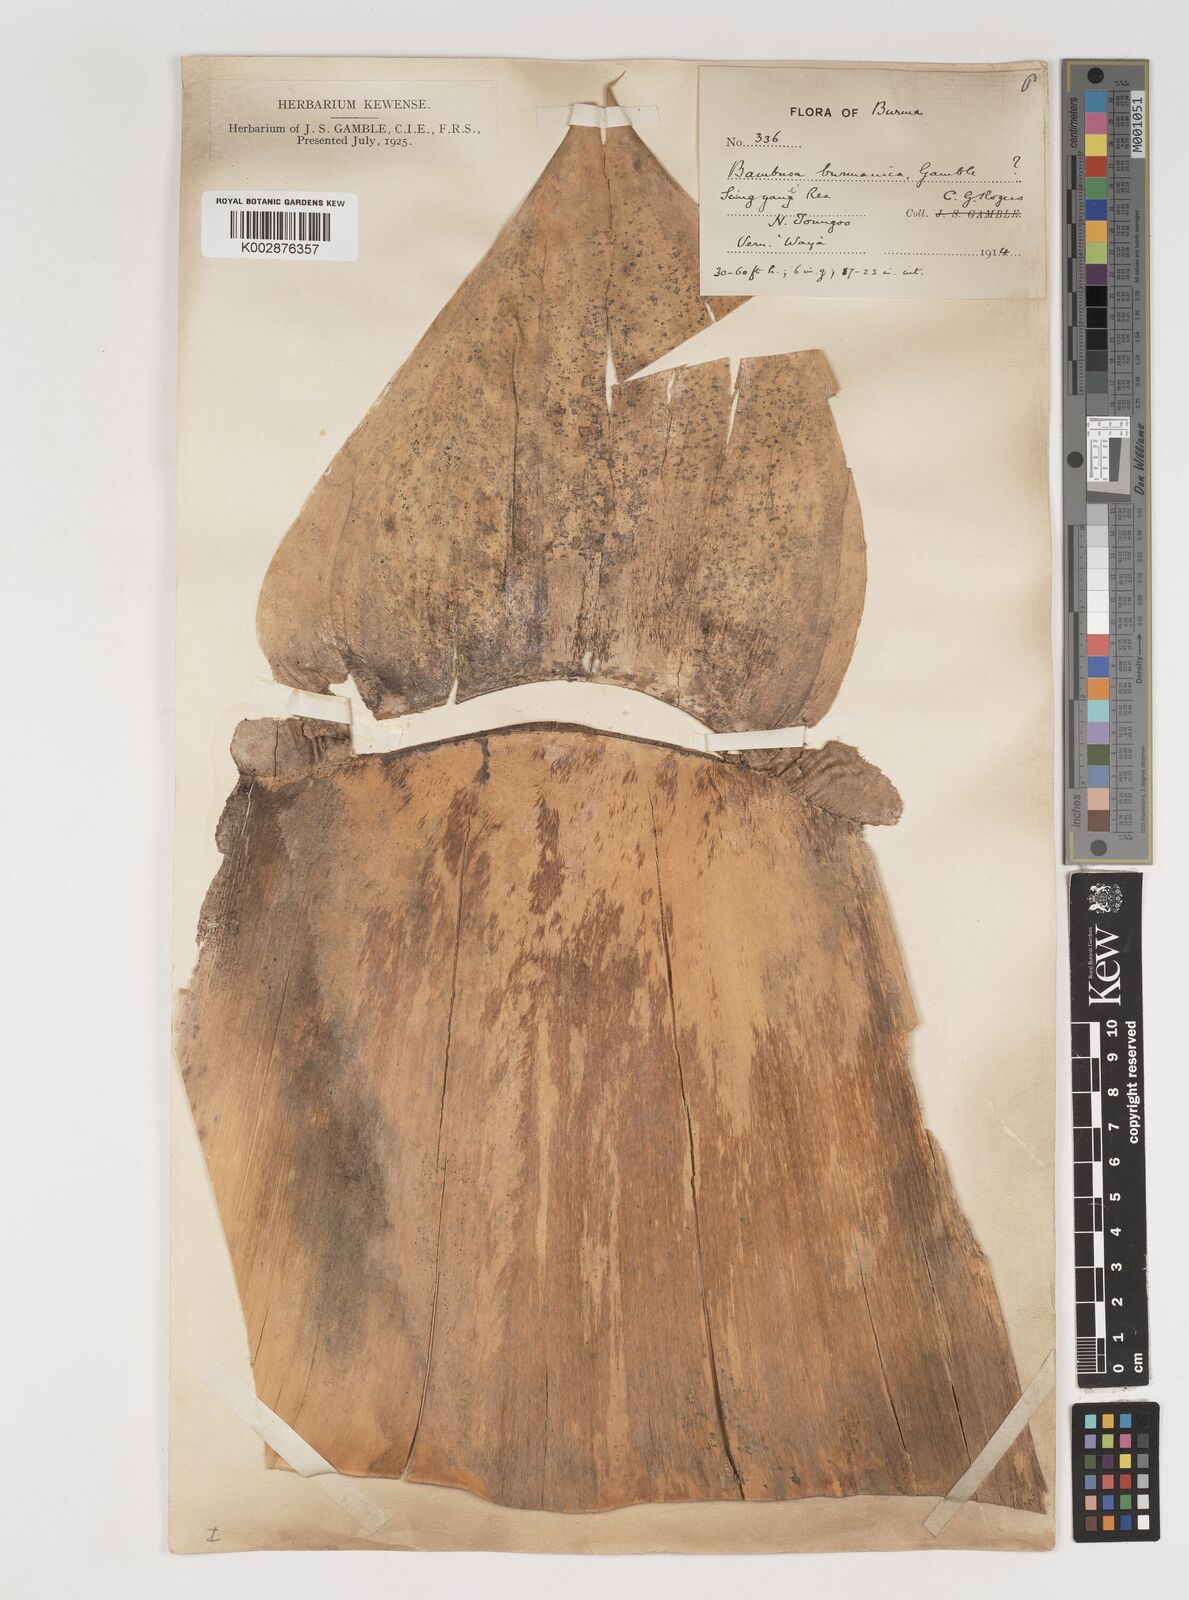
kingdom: Plantae
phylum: Tracheophyta
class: Liliopsida
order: Poales
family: Poaceae
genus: Bambusa
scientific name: Bambusa burmanica
